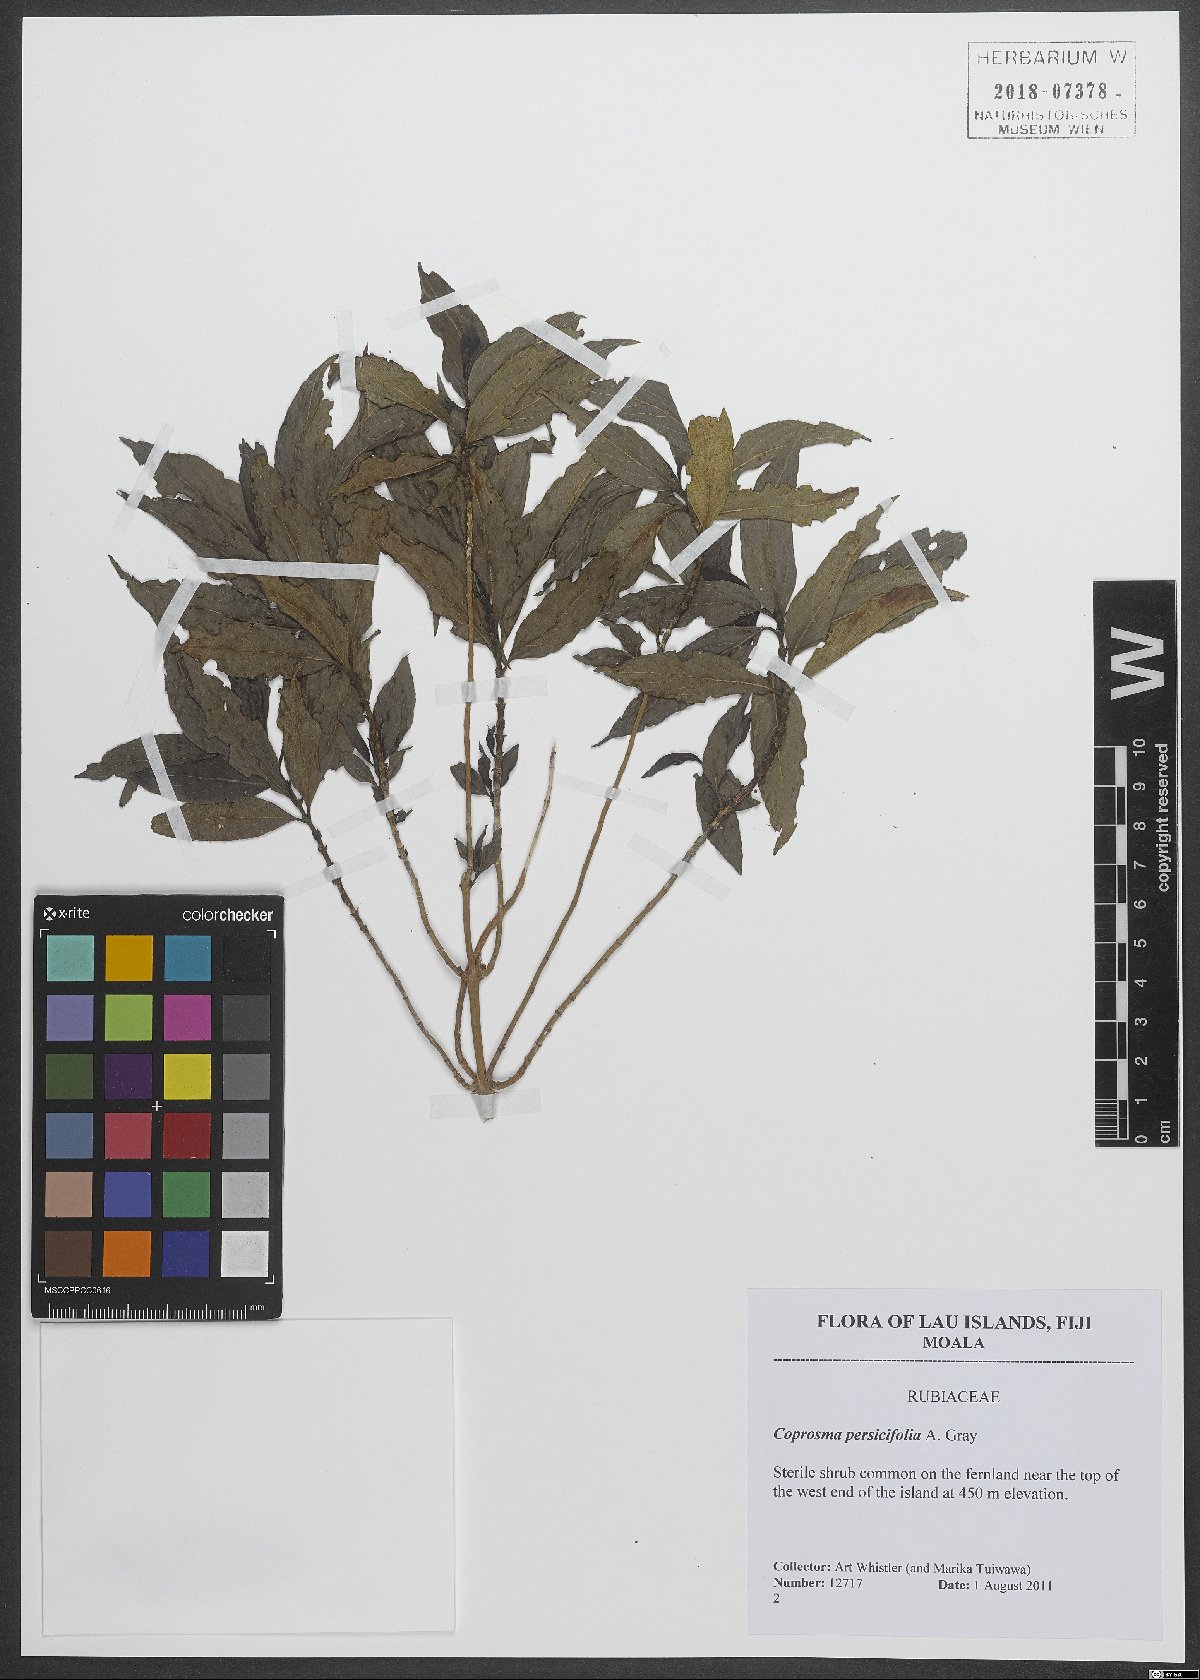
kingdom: Plantae
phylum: Tracheophyta
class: Magnoliopsida
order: Gentianales
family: Rubiaceae
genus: Coprosma
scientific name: Coprosma persicifolia
